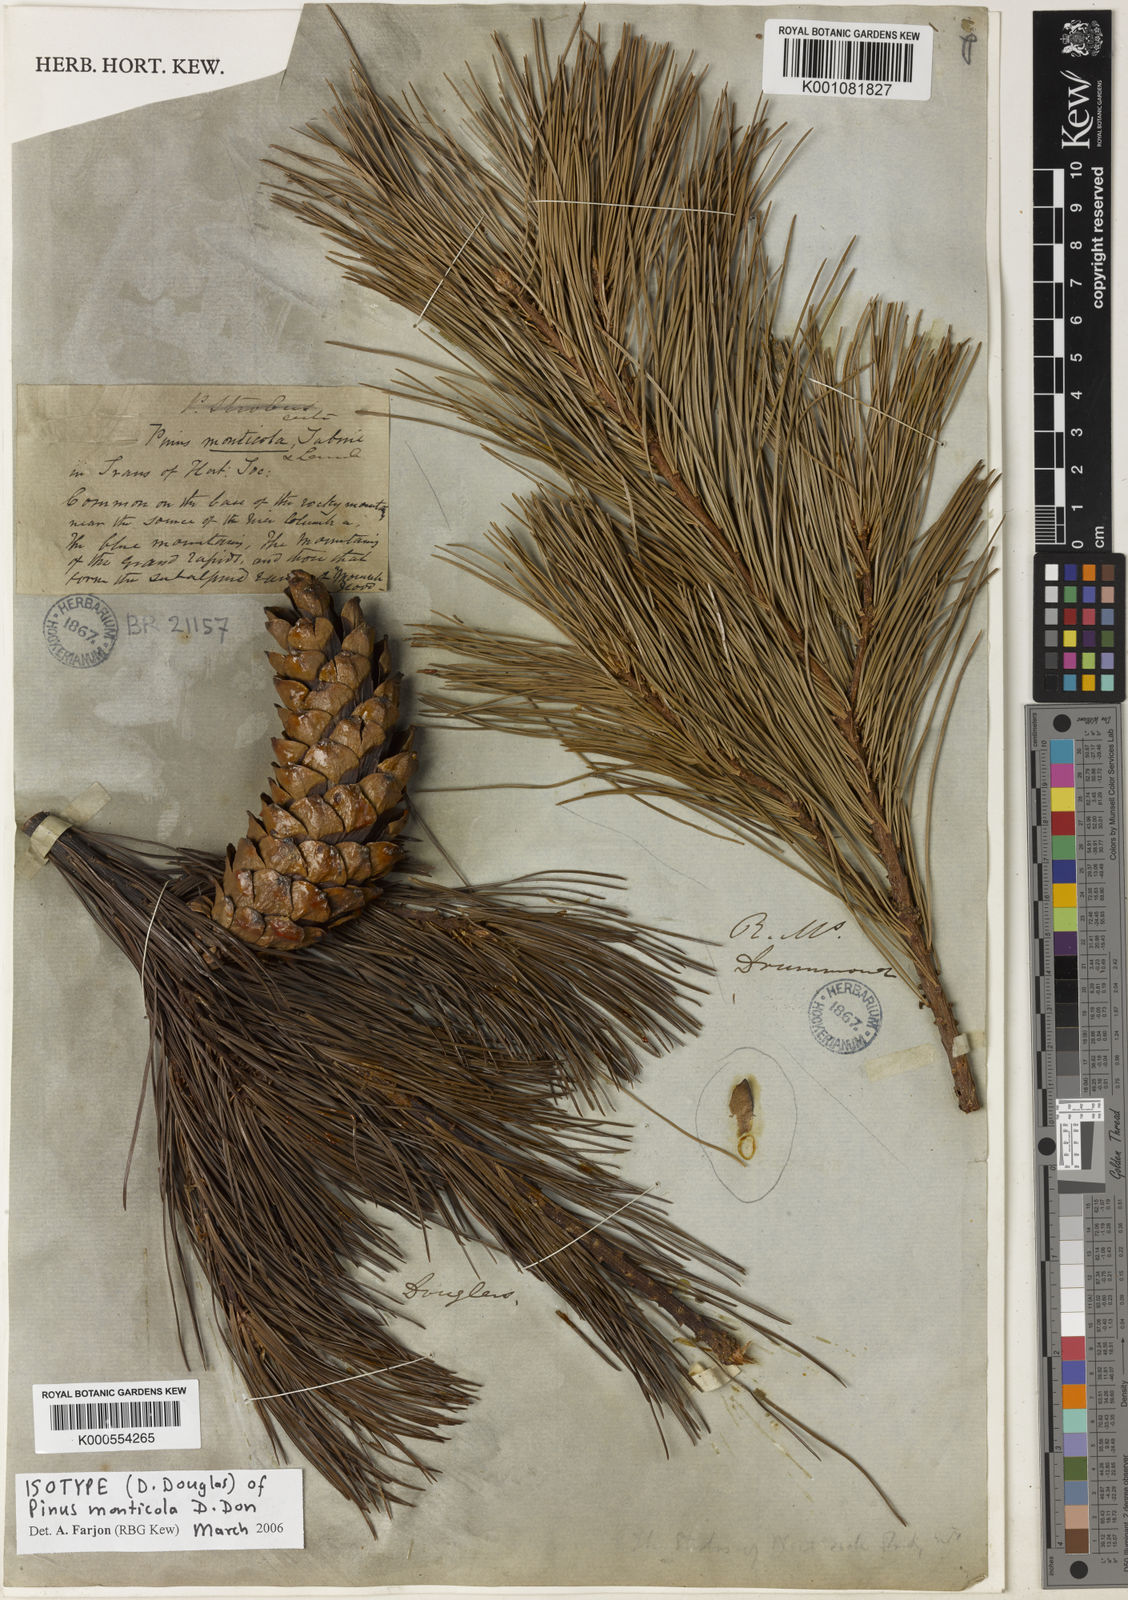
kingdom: Plantae
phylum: Tracheophyta
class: Pinopsida
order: Pinales
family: Pinaceae
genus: Pinus
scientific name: Pinus monticola
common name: Western white pine
